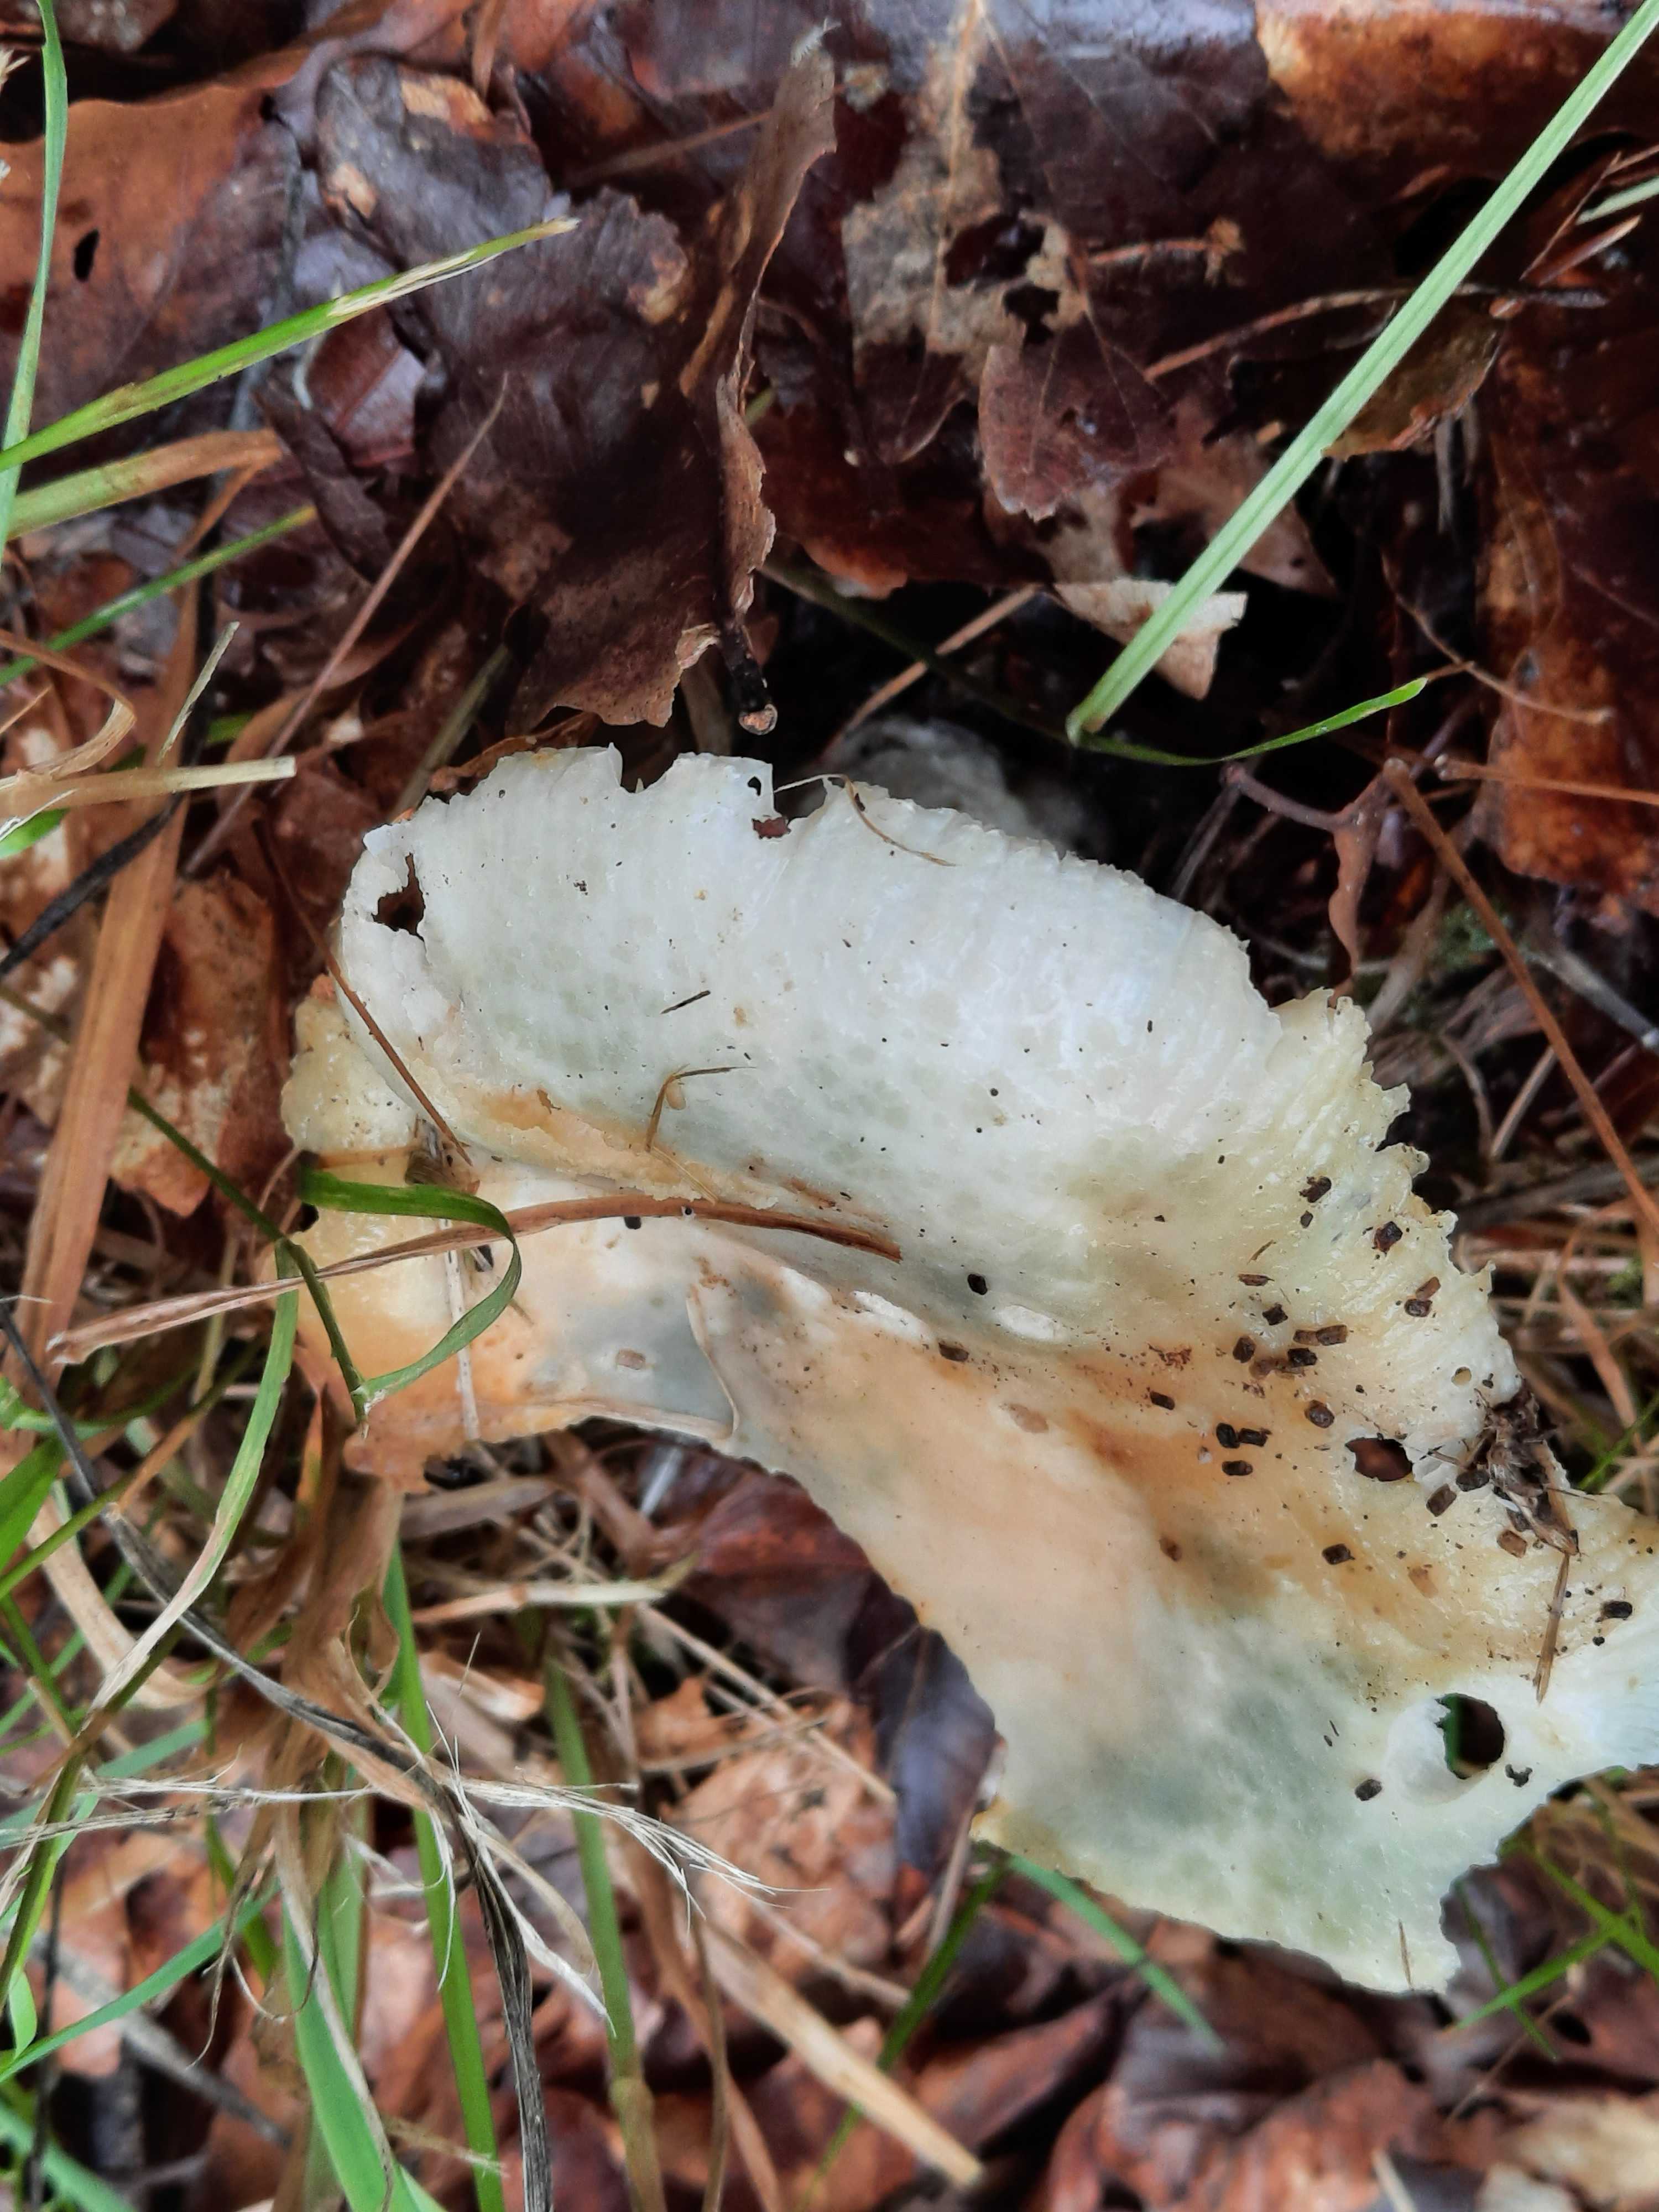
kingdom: Fungi
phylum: Basidiomycota
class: Agaricomycetes
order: Russulales
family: Russulaceae
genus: Russula
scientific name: Russula virescens
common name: spanskgrøn skørhat
